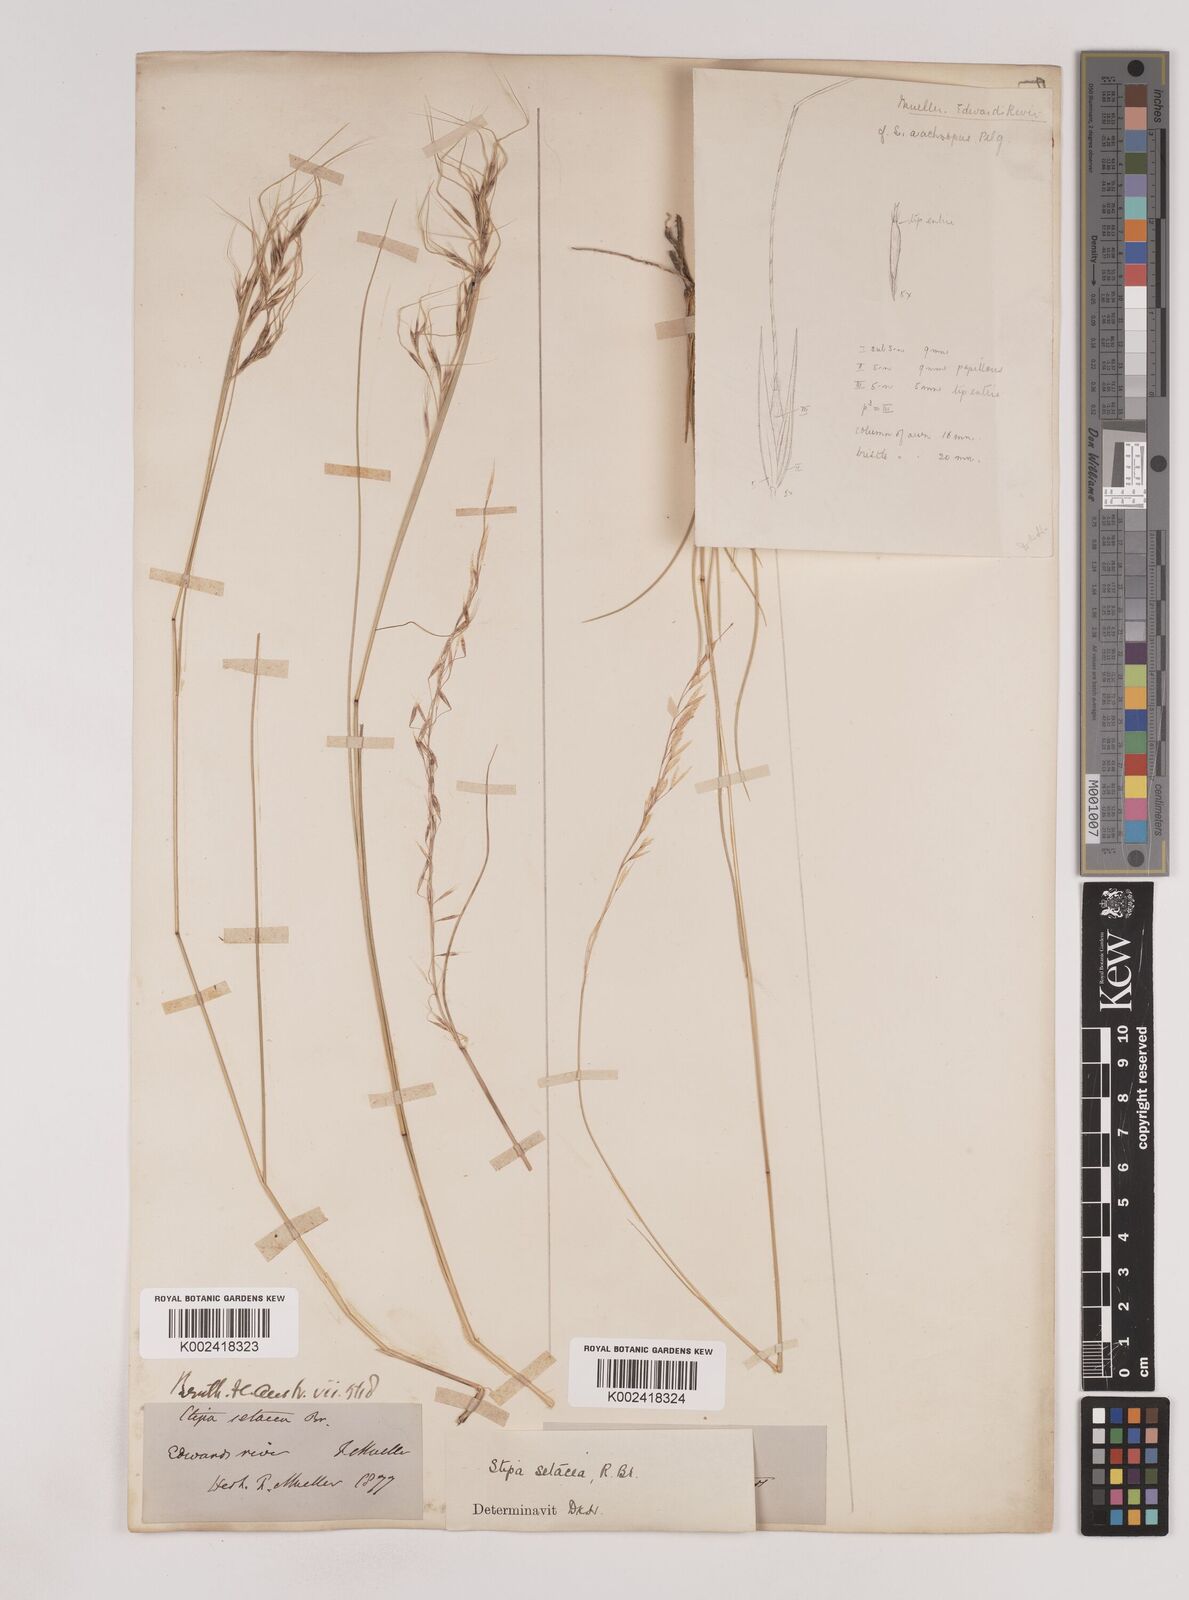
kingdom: Plantae
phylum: Tracheophyta
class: Liliopsida
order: Poales
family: Poaceae
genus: Piptochaetium
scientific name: Piptochaetium
